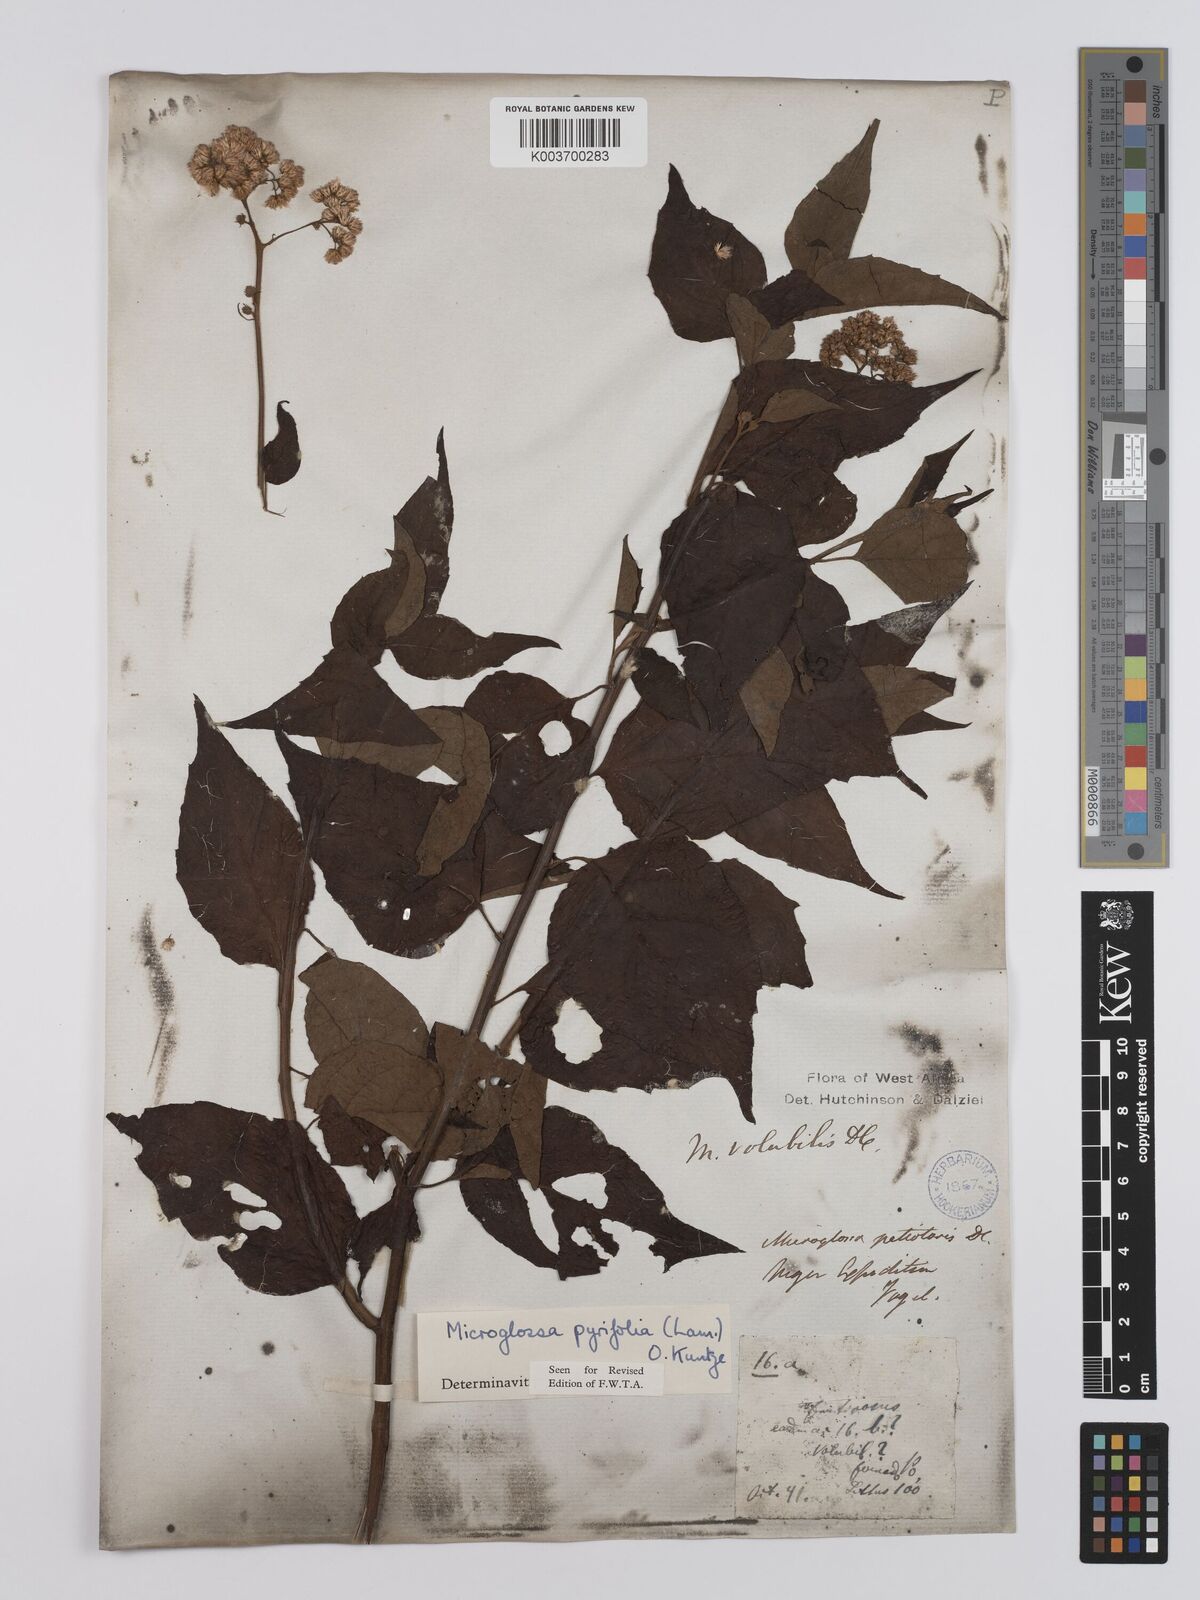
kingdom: Plantae
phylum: Tracheophyta
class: Magnoliopsida
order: Asterales
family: Asteraceae
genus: Microglossa
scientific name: Microglossa pyrifolia
